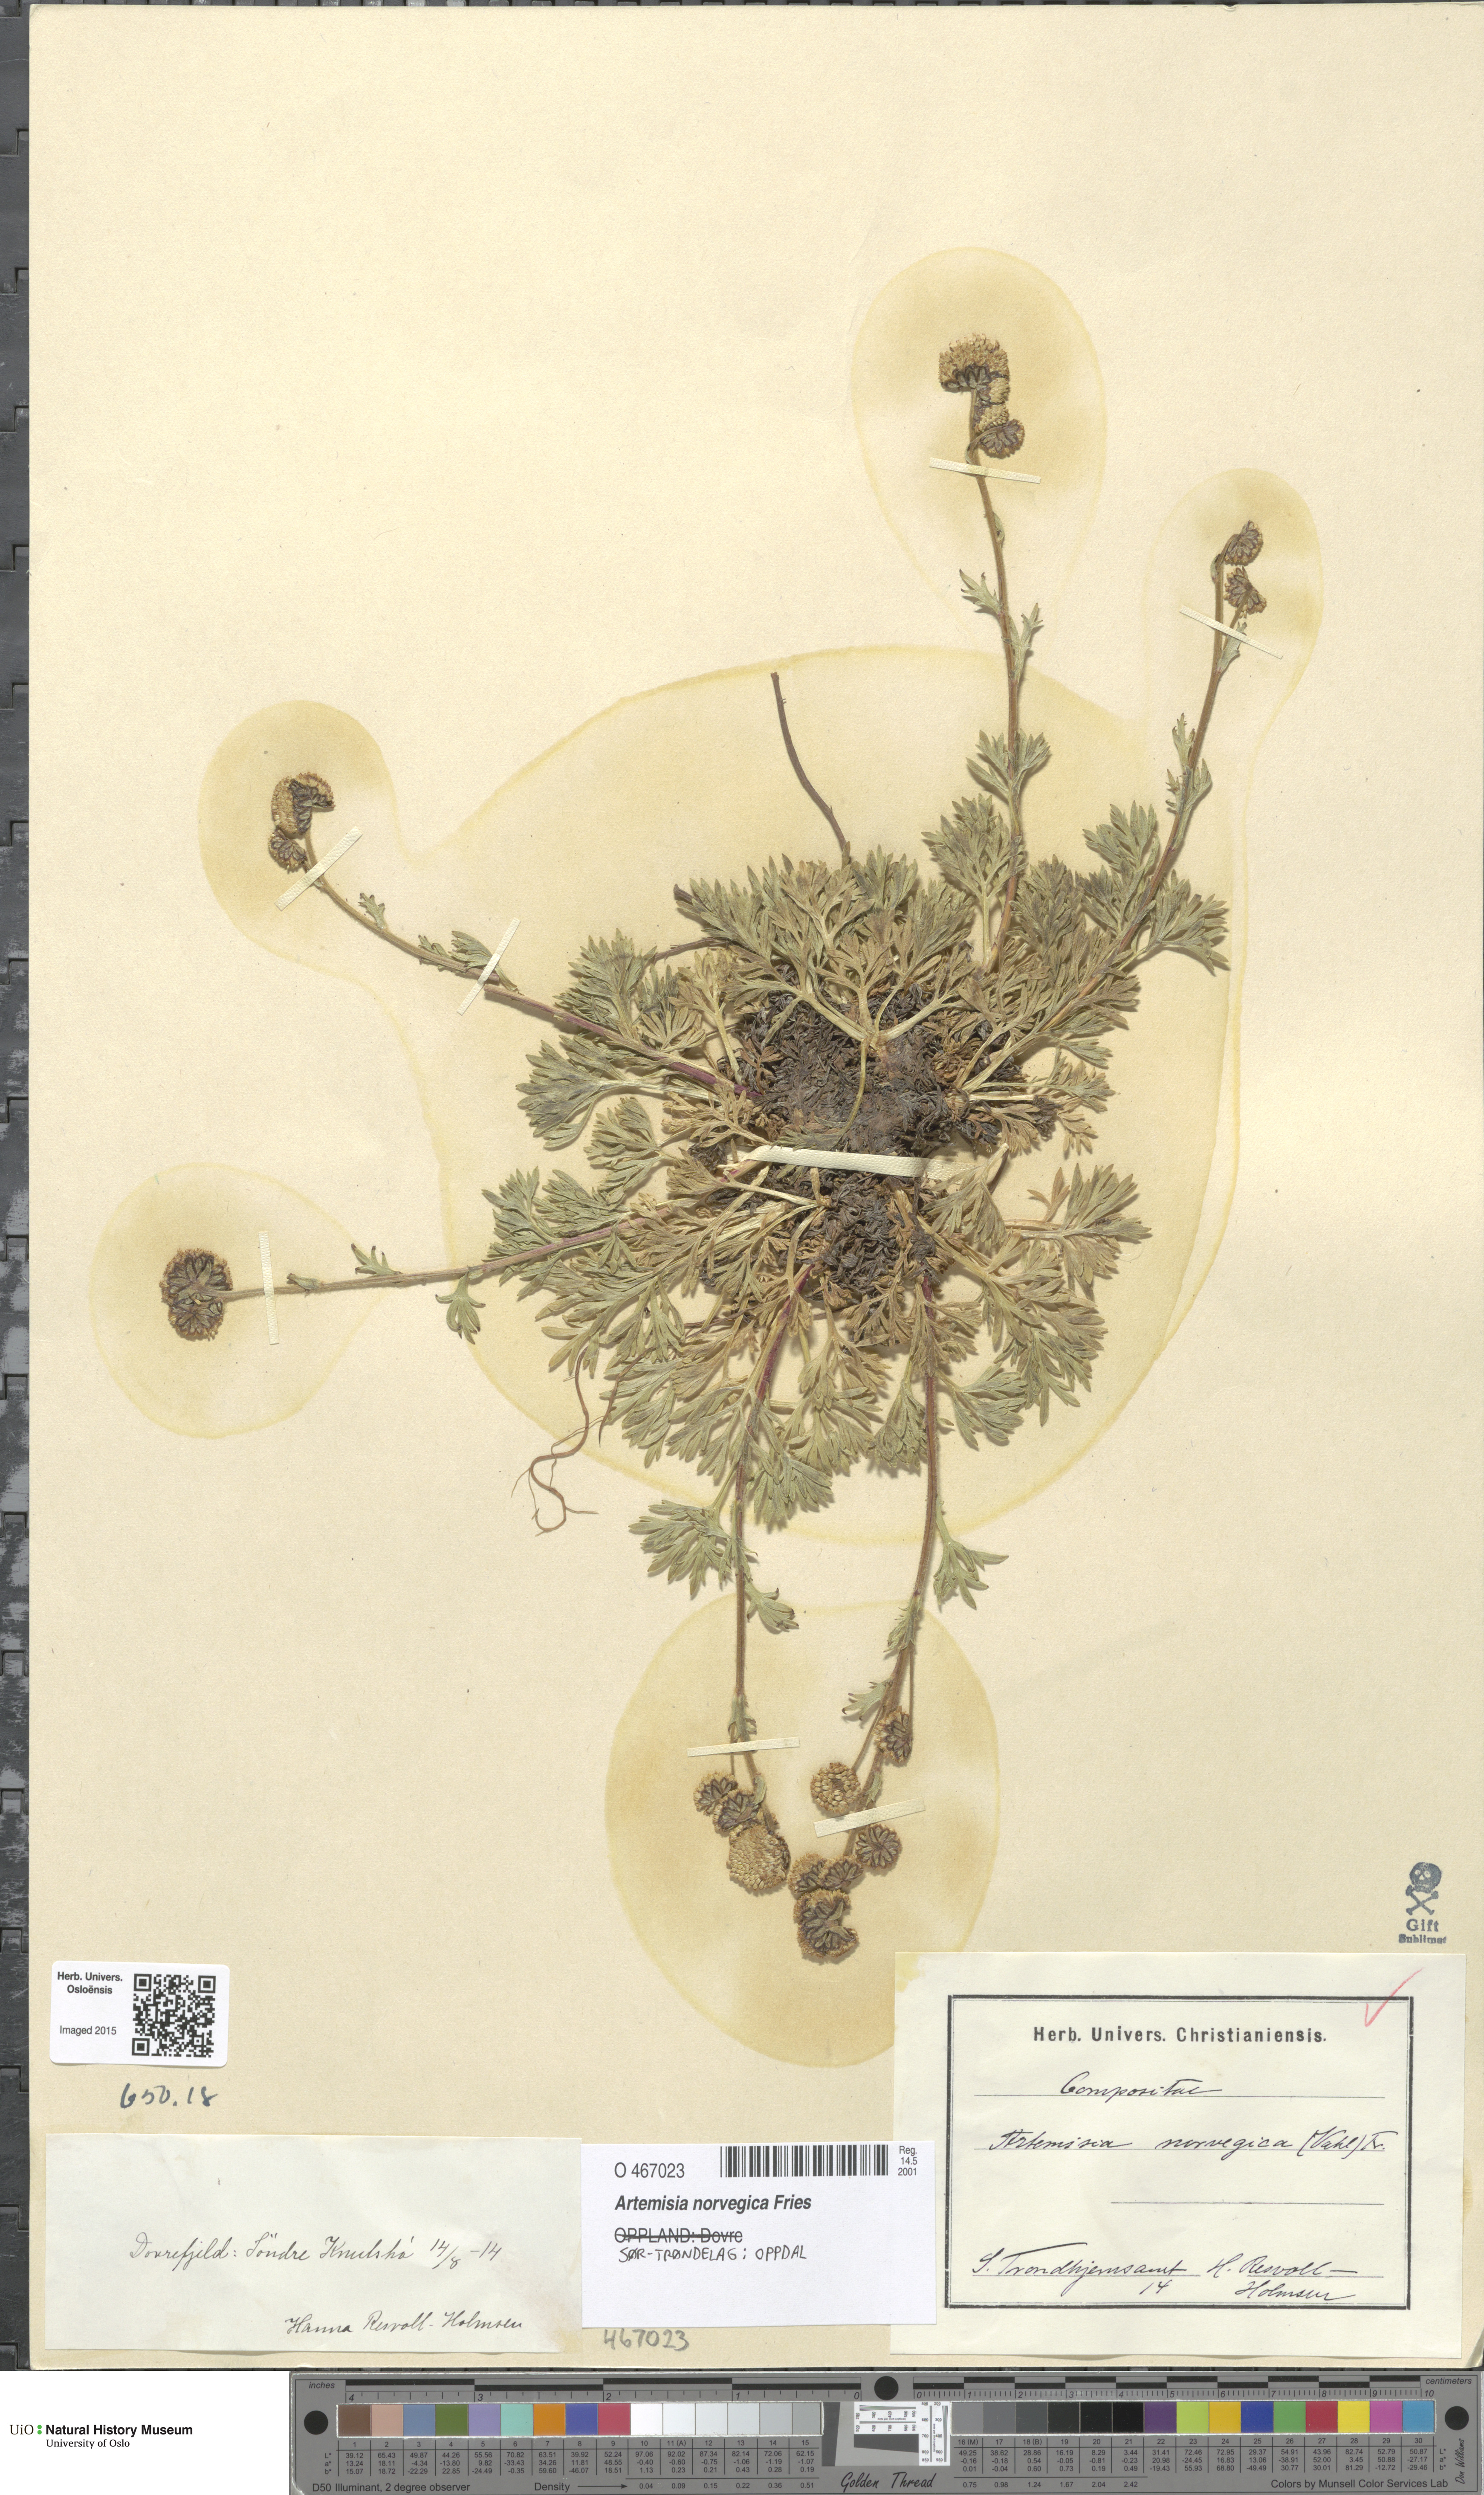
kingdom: Plantae
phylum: Tracheophyta
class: Magnoliopsida
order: Asterales
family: Asteraceae
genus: Artemisia
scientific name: Artemisia norvegica
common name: Norwegian mugwort
